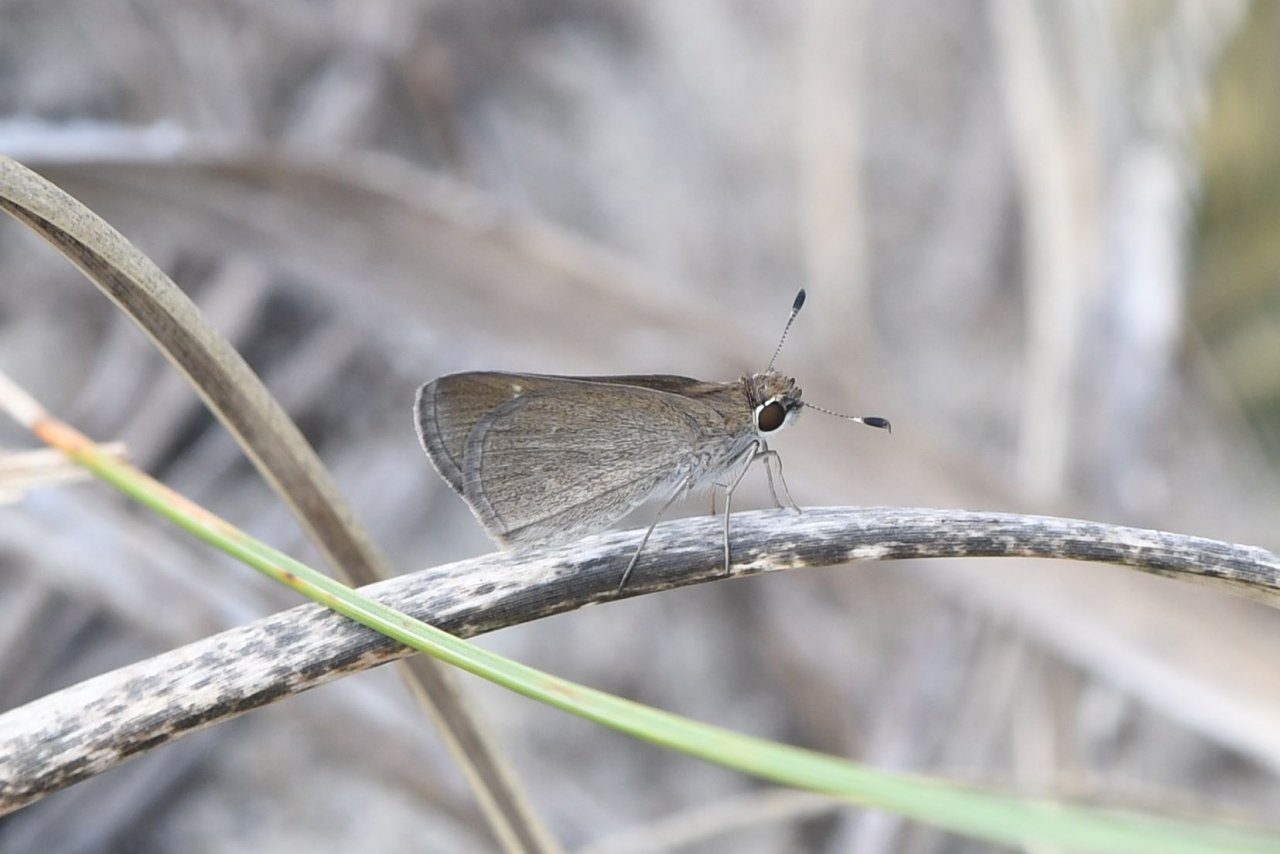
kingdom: Animalia
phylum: Arthropoda
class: Insecta
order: Lepidoptera
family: Hesperiidae
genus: Lerodea
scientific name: Lerodea eufala
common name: Eufala Skipper
